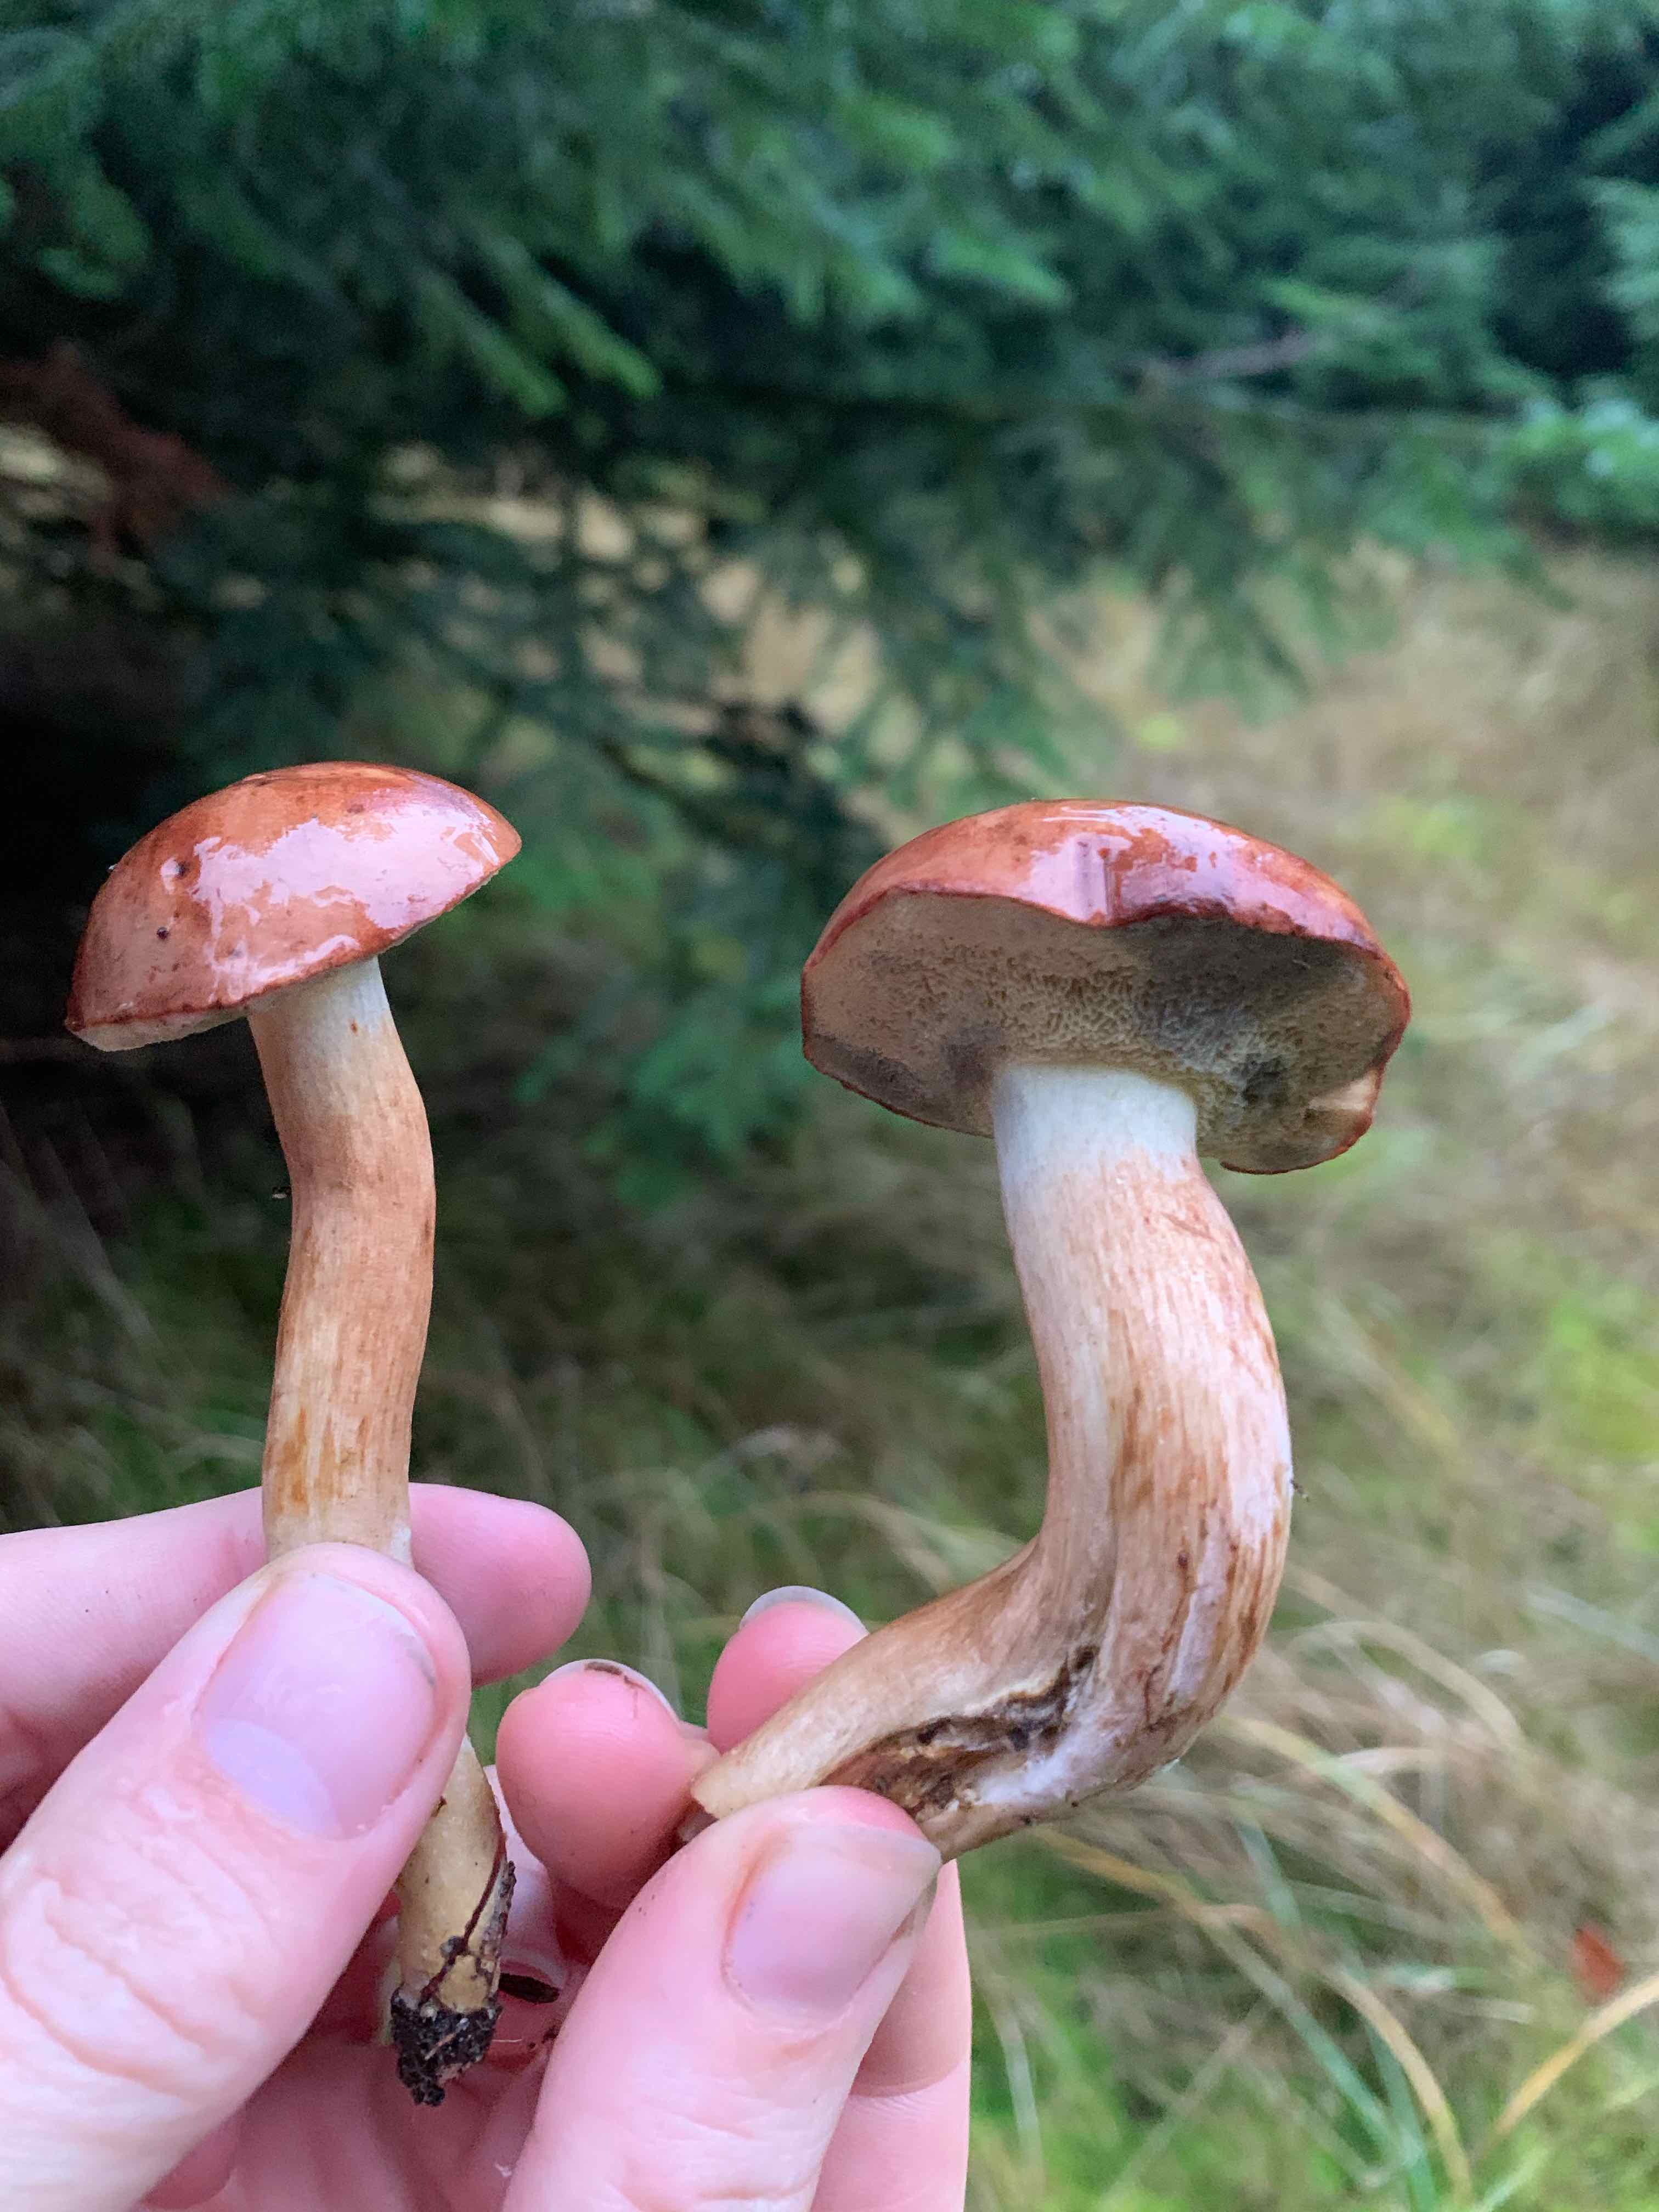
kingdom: Fungi
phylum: Basidiomycota
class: Agaricomycetes
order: Boletales
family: Boletaceae
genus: Imleria
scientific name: Imleria badia
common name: brunstokket rørhat
